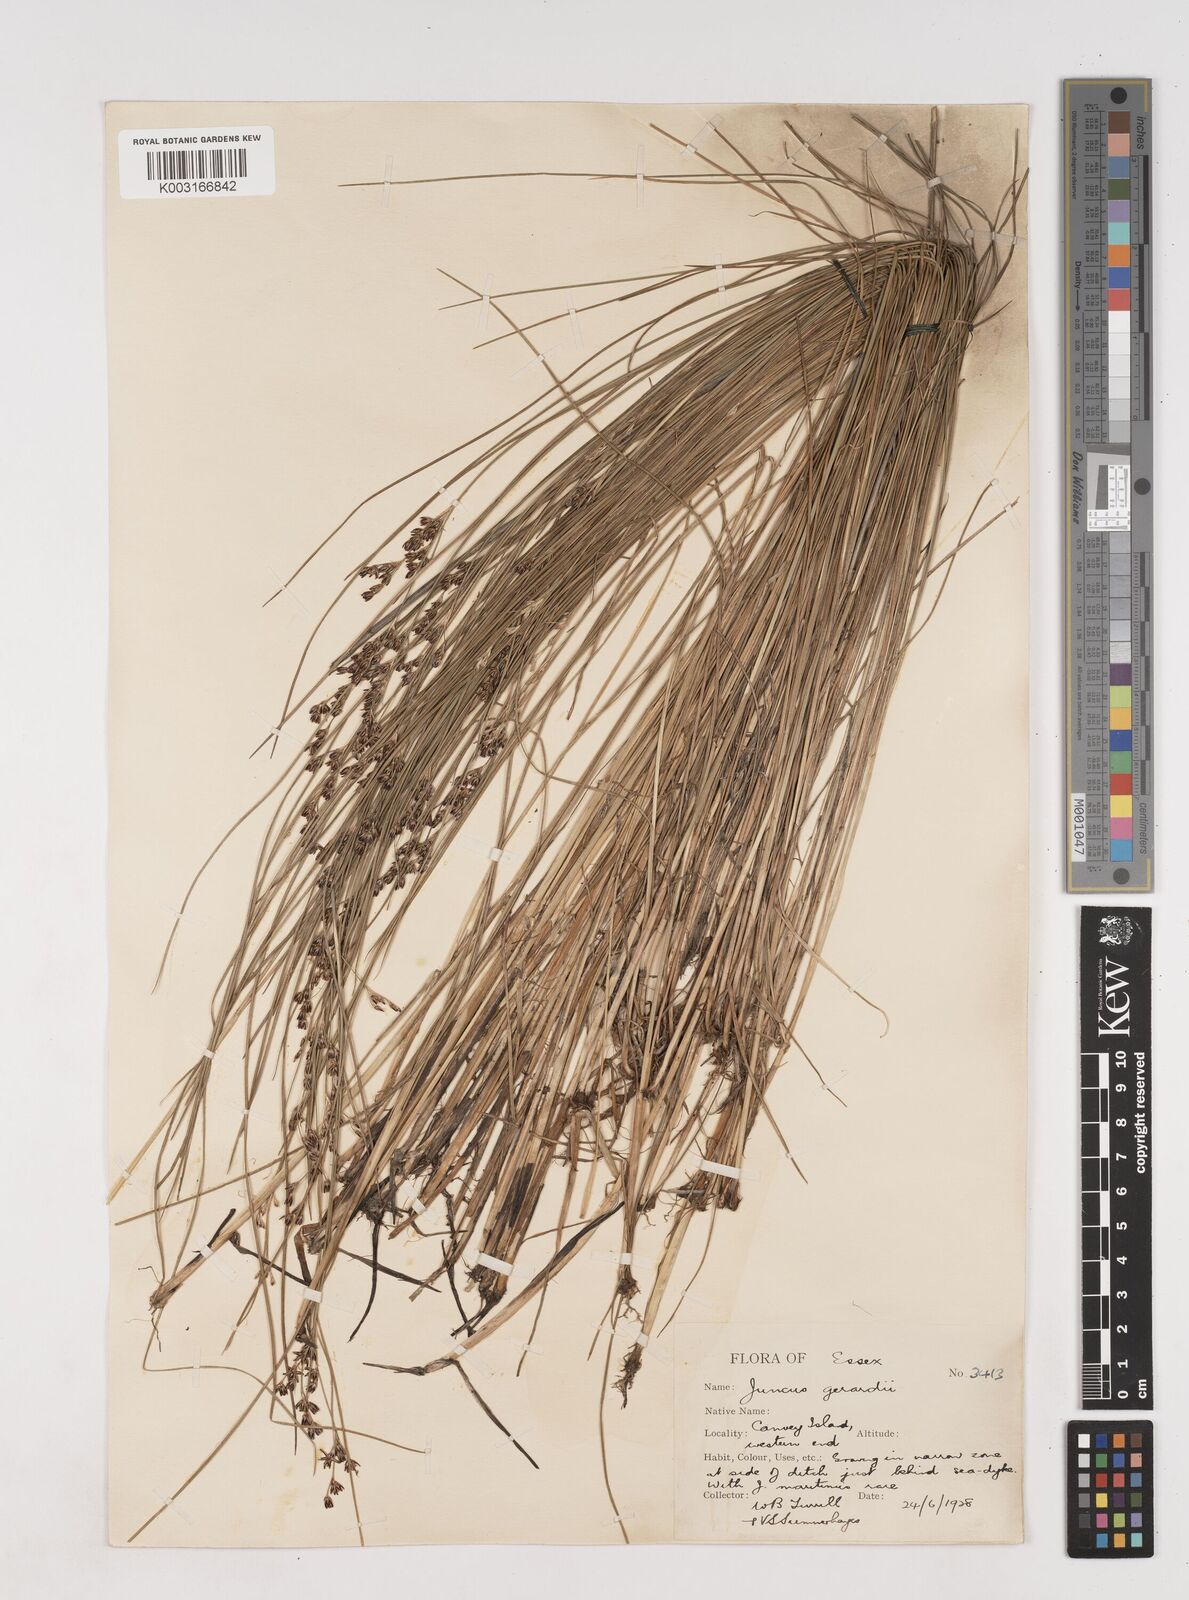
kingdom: Plantae
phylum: Tracheophyta
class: Liliopsida
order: Poales
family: Juncaceae
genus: Juncus
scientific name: Juncus gerardi
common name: Saltmarsh rush
